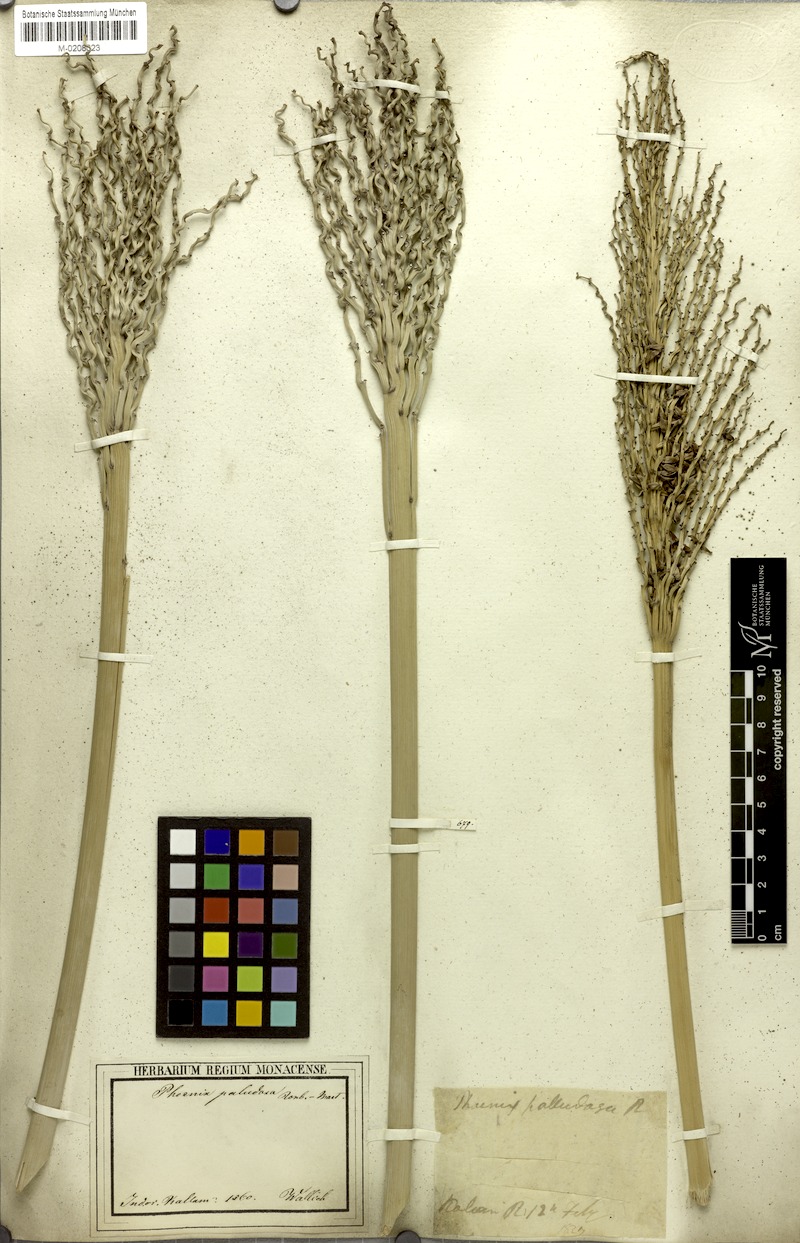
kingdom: Plantae
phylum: Tracheophyta
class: Liliopsida
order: Arecales
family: Arecaceae
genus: Phoenix
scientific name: Phoenix paludosa
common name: Mangrove date palm
